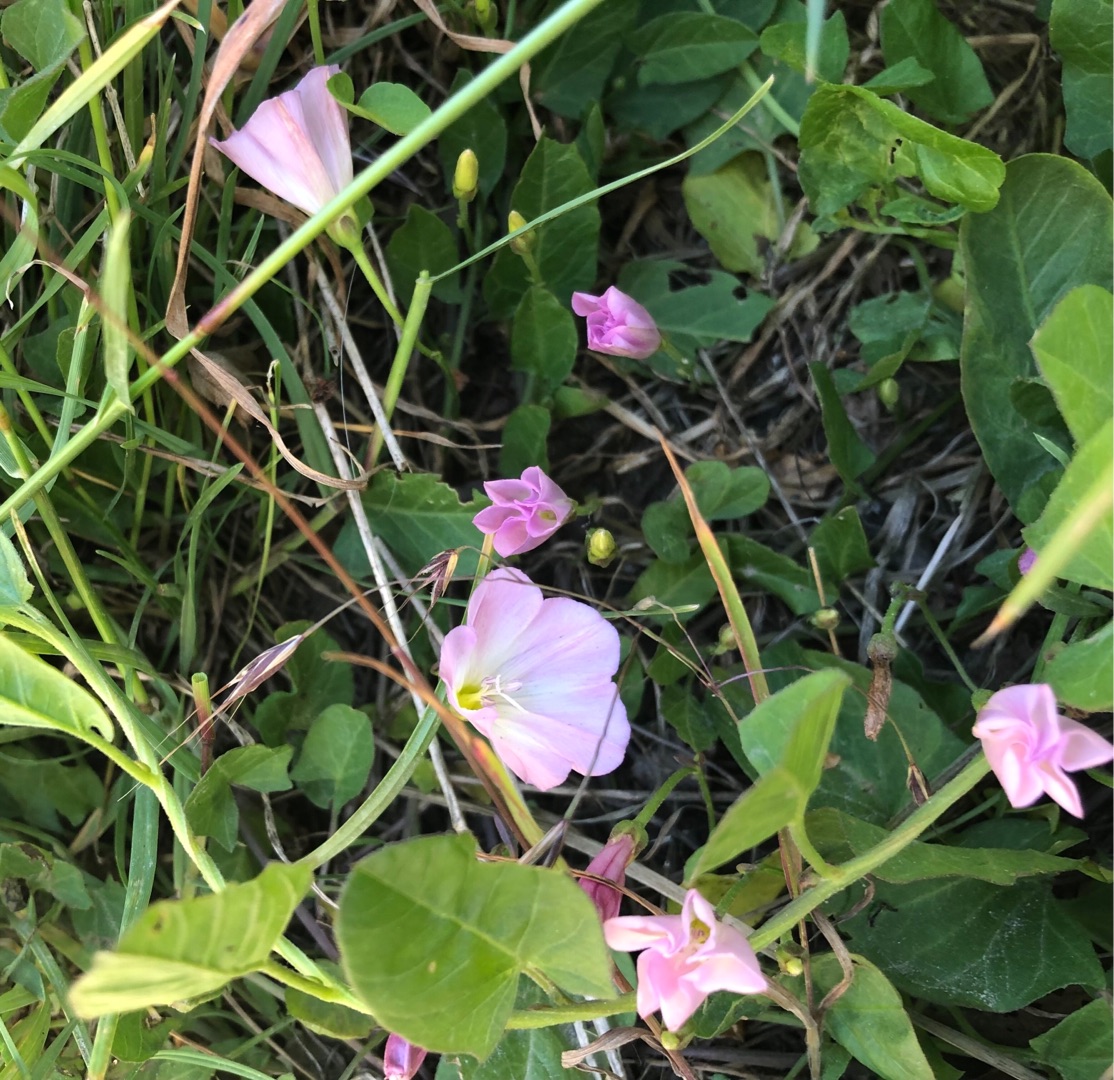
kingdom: Plantae
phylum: Tracheophyta
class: Magnoliopsida
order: Solanales
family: Convolvulaceae
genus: Convolvulus
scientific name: Convolvulus arvensis
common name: Ager-snerle
